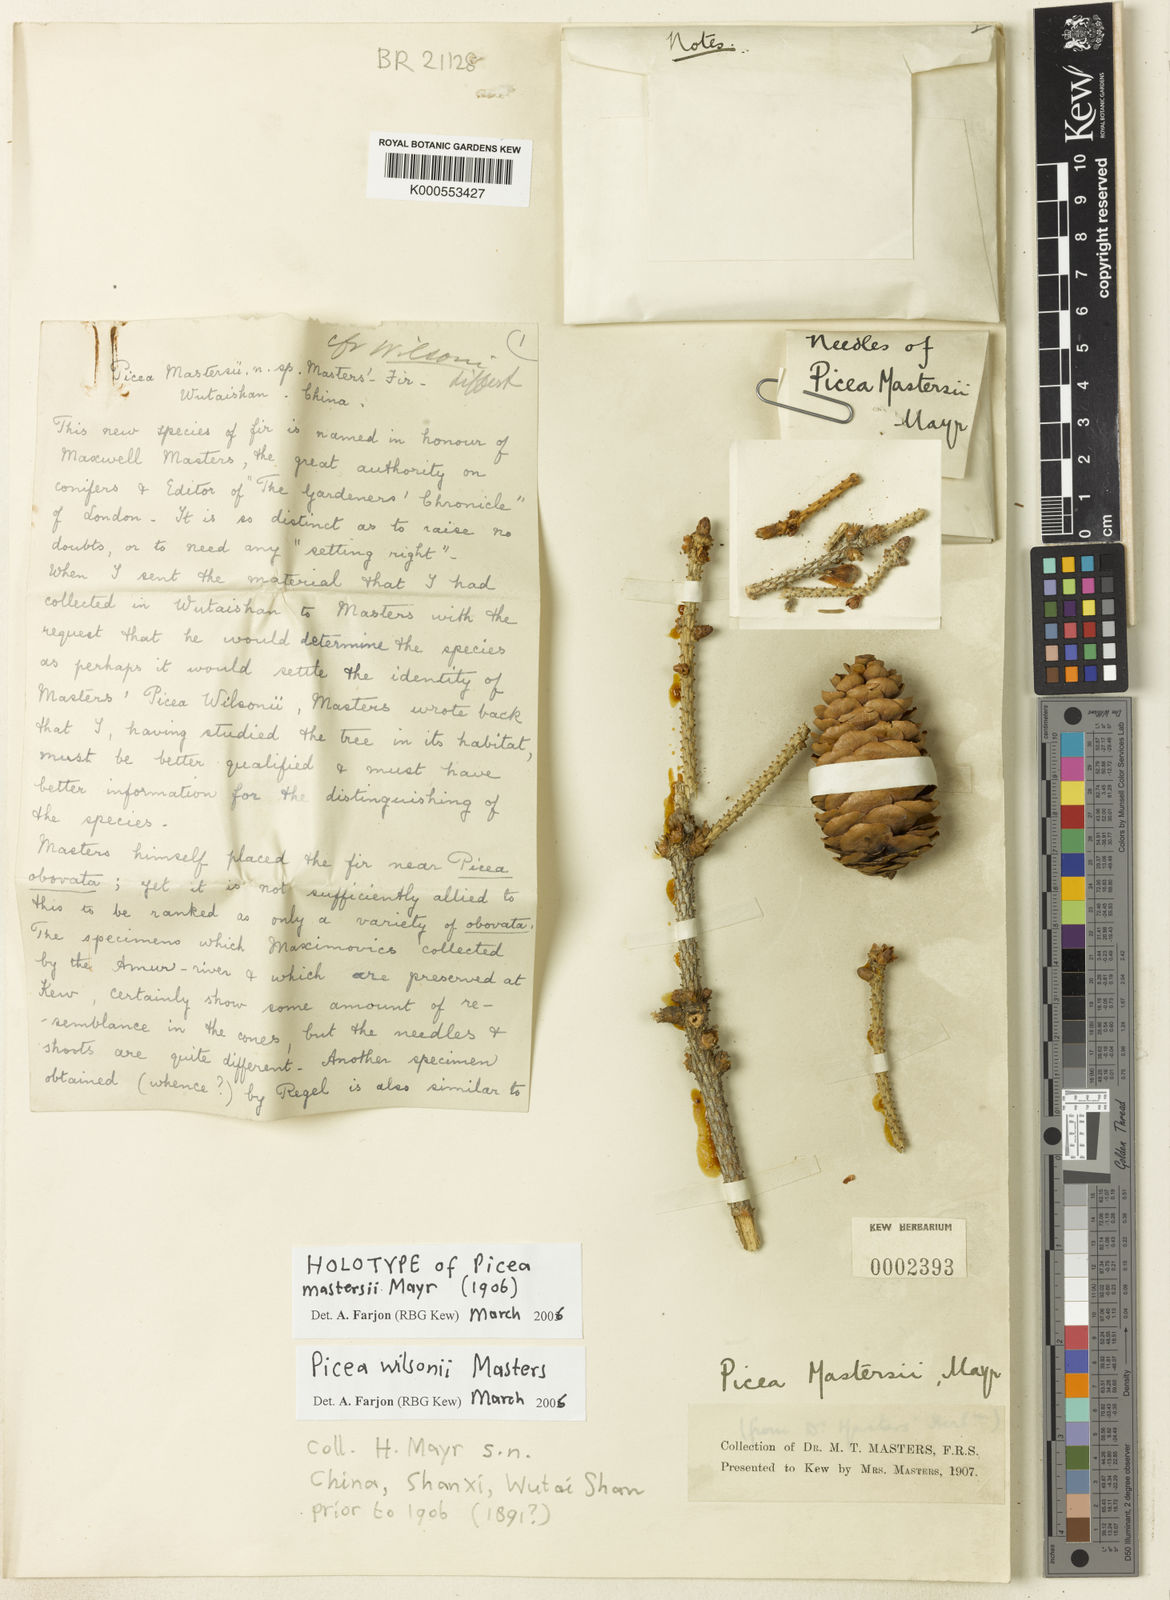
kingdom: Plantae
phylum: Tracheophyta
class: Pinopsida
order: Pinales
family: Pinaceae
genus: Picea
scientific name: Picea wilsonii
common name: Wilson spruce
